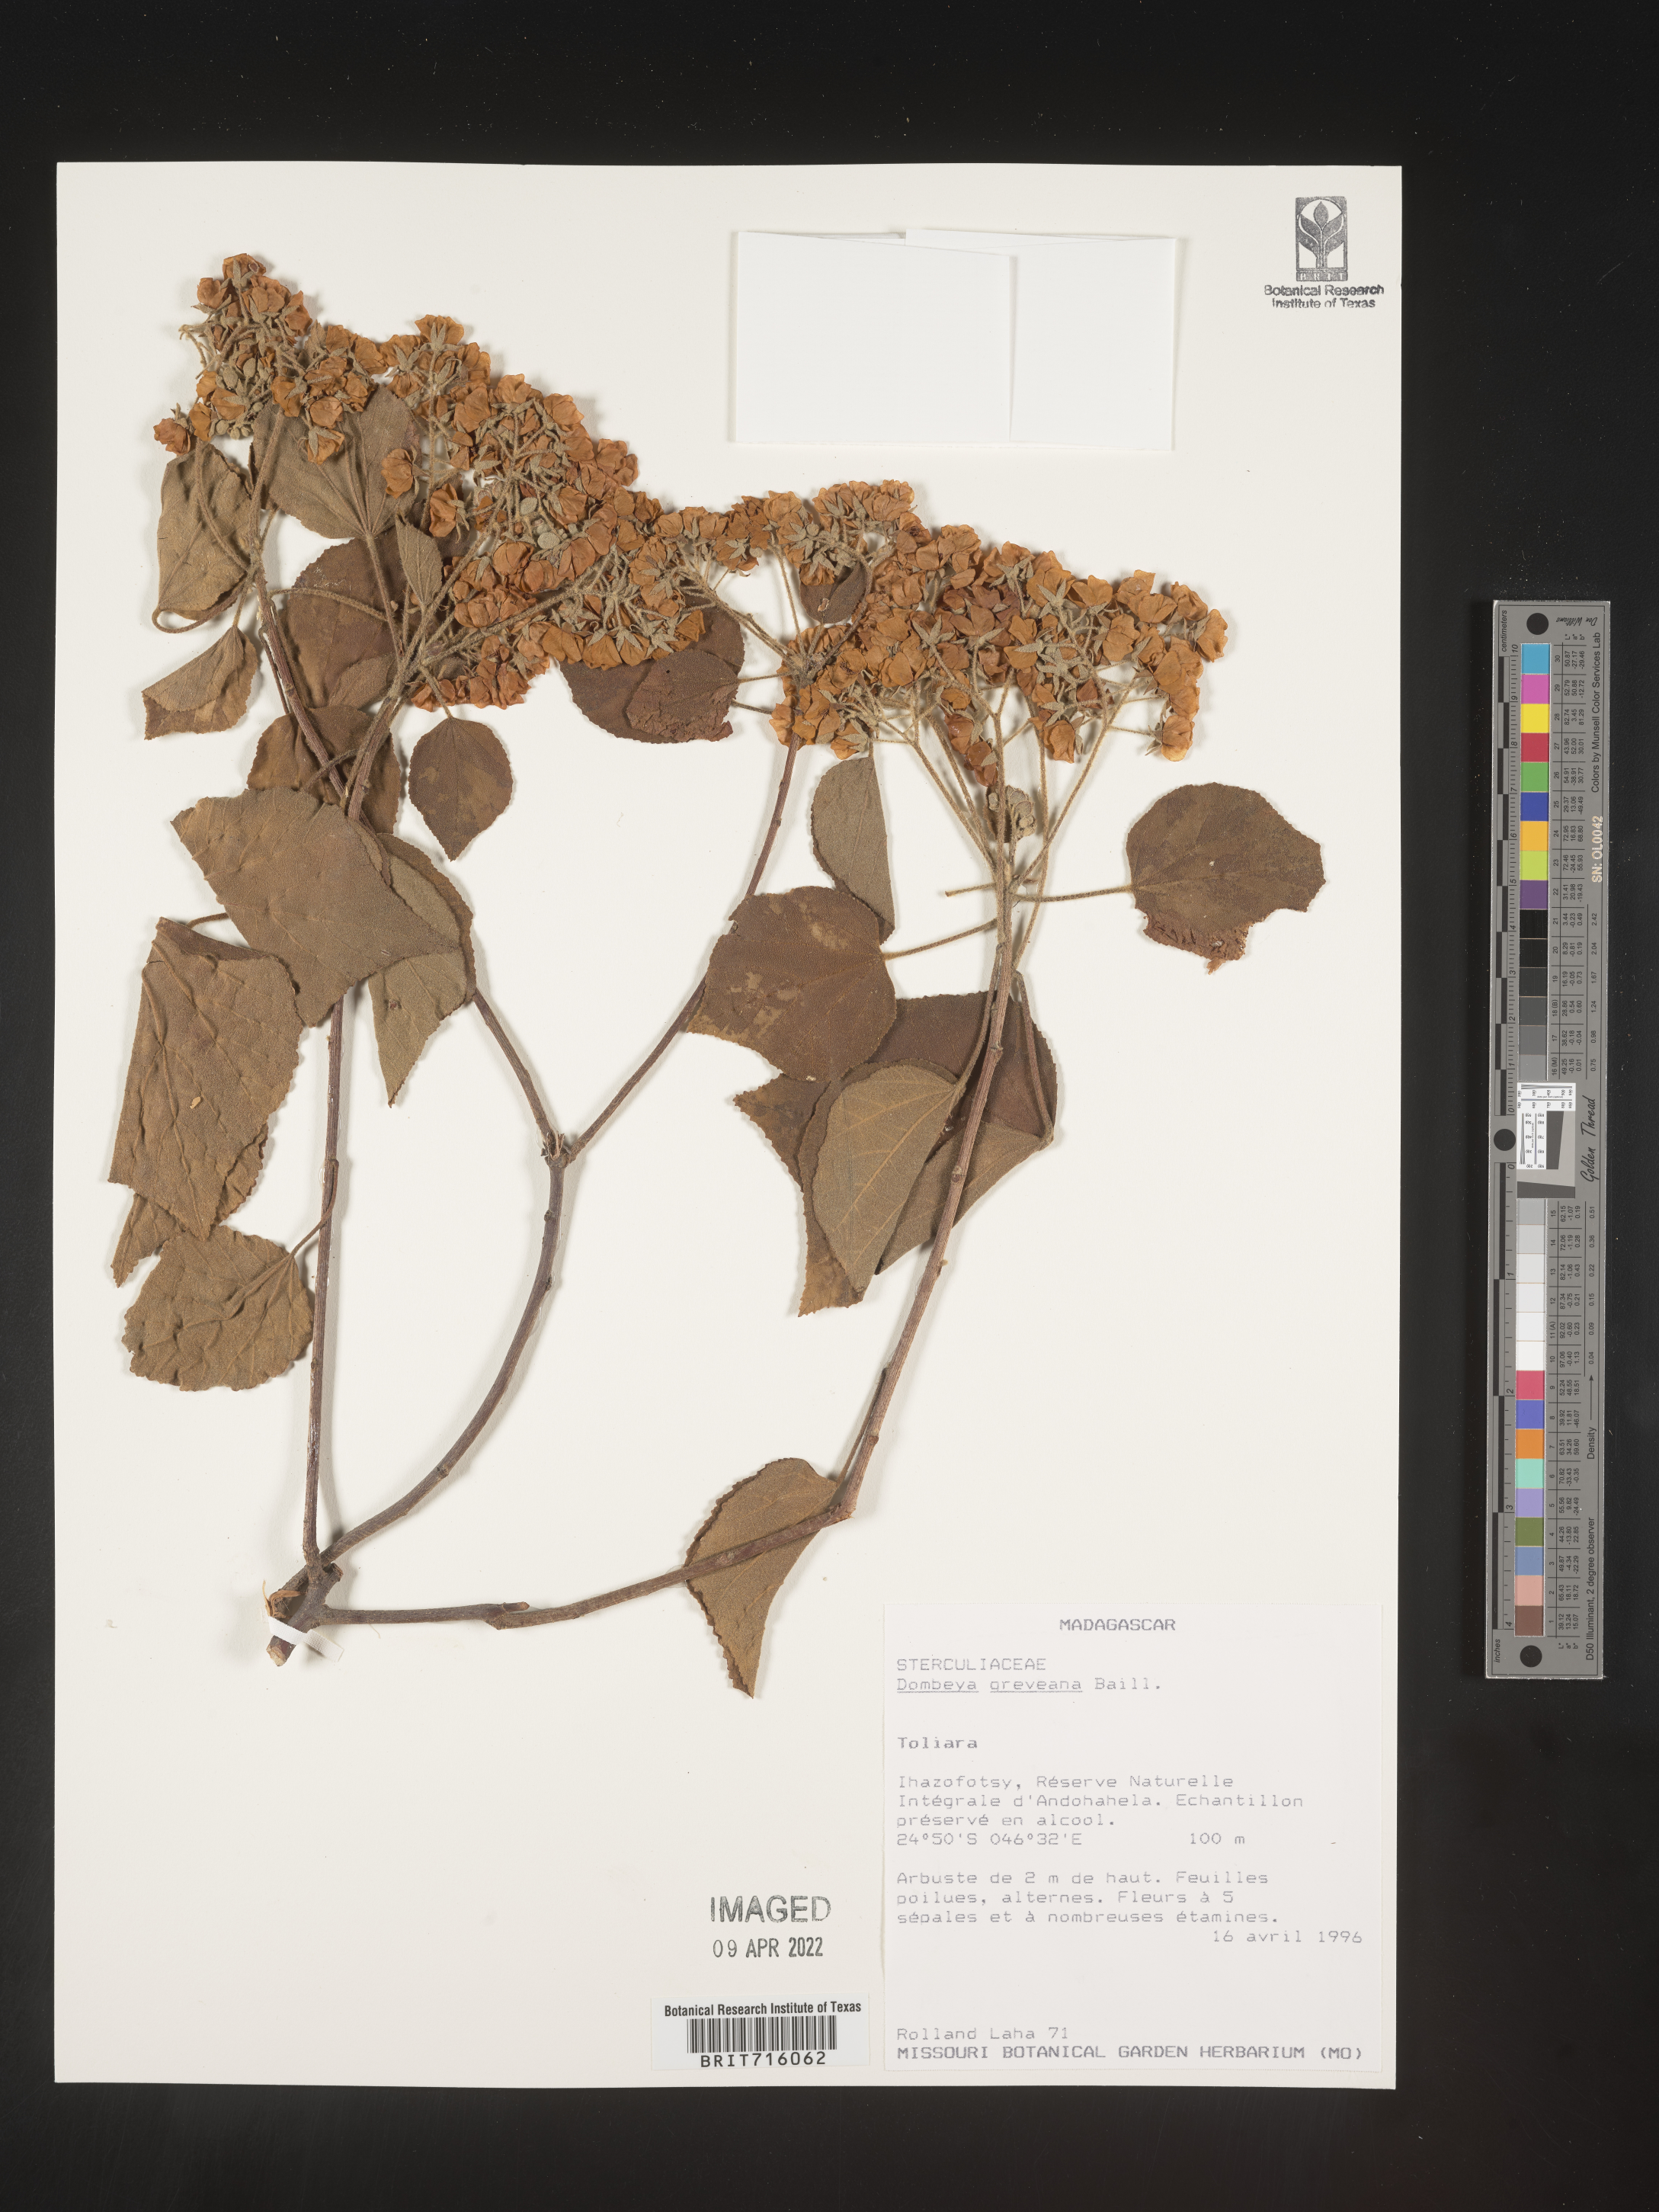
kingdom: Plantae
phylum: Tracheophyta
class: Magnoliopsida
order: Malvales
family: Malvaceae
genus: Dombeya
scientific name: Dombeya
